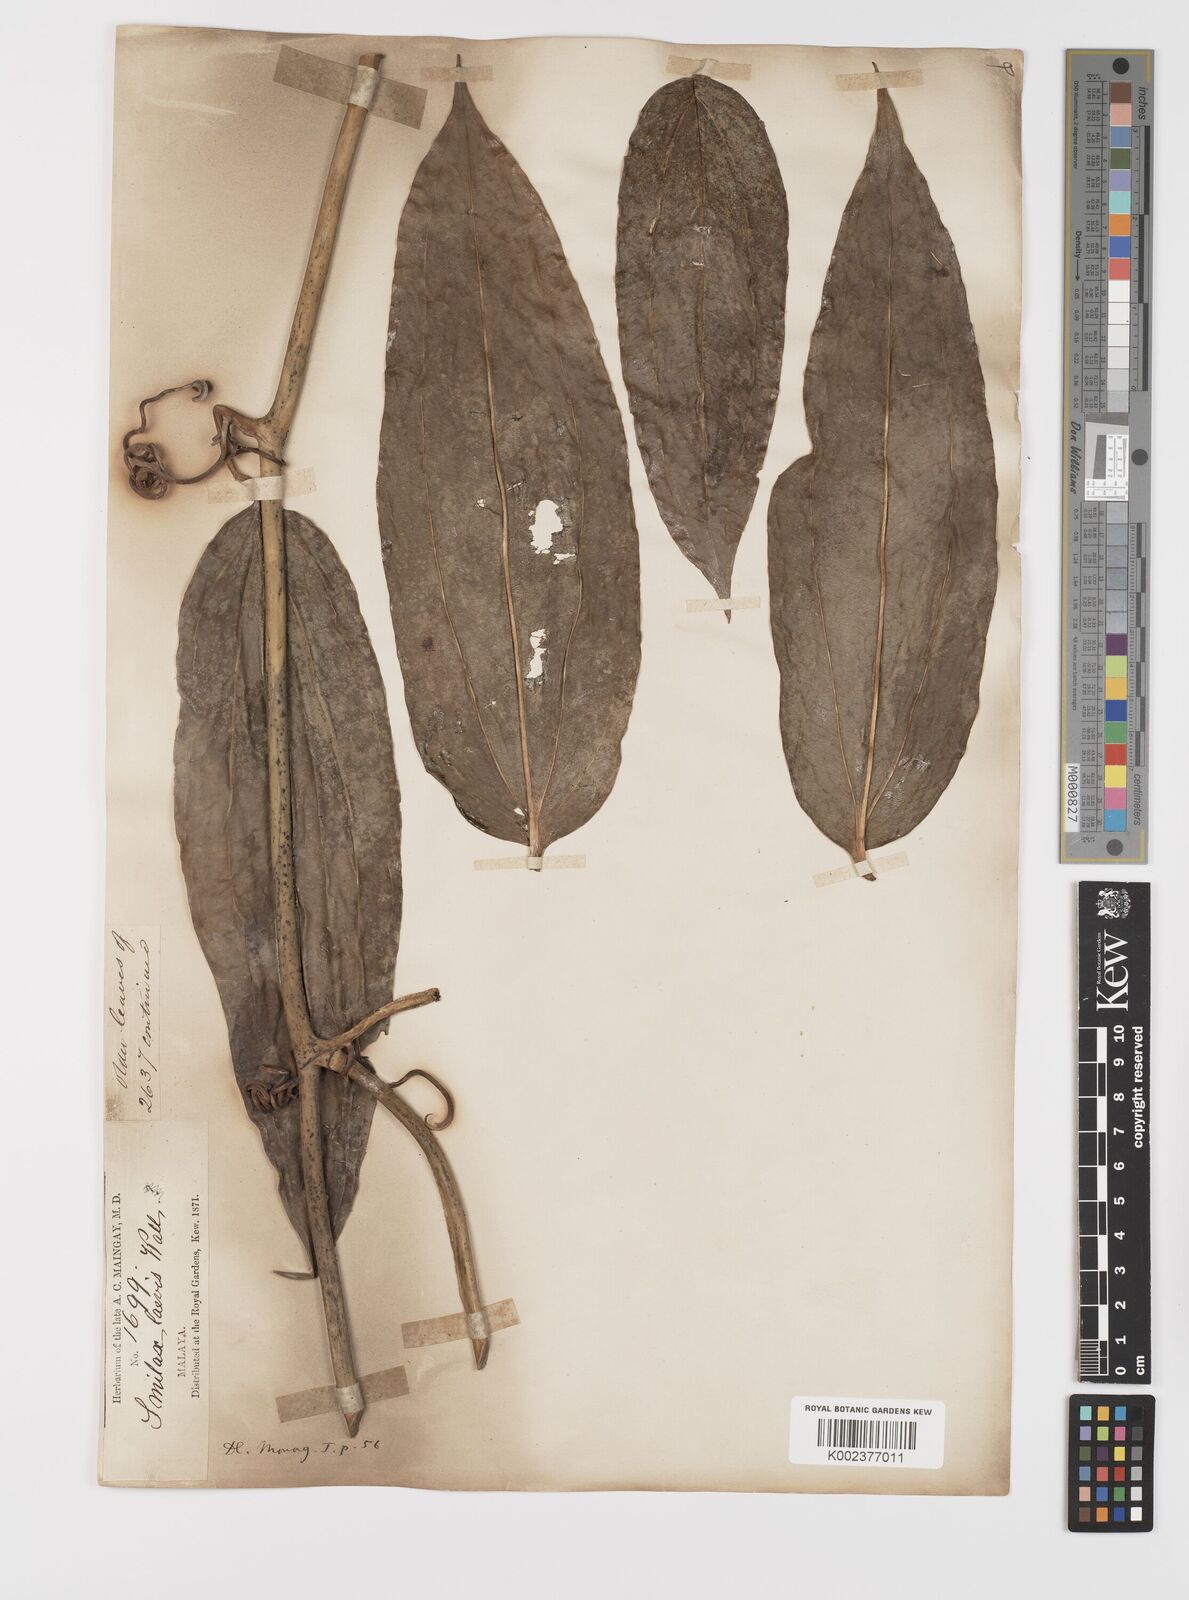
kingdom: Plantae
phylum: Tracheophyta
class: Liliopsida
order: Liliales
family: Smilacaceae
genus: Smilax
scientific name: Smilax laevis
